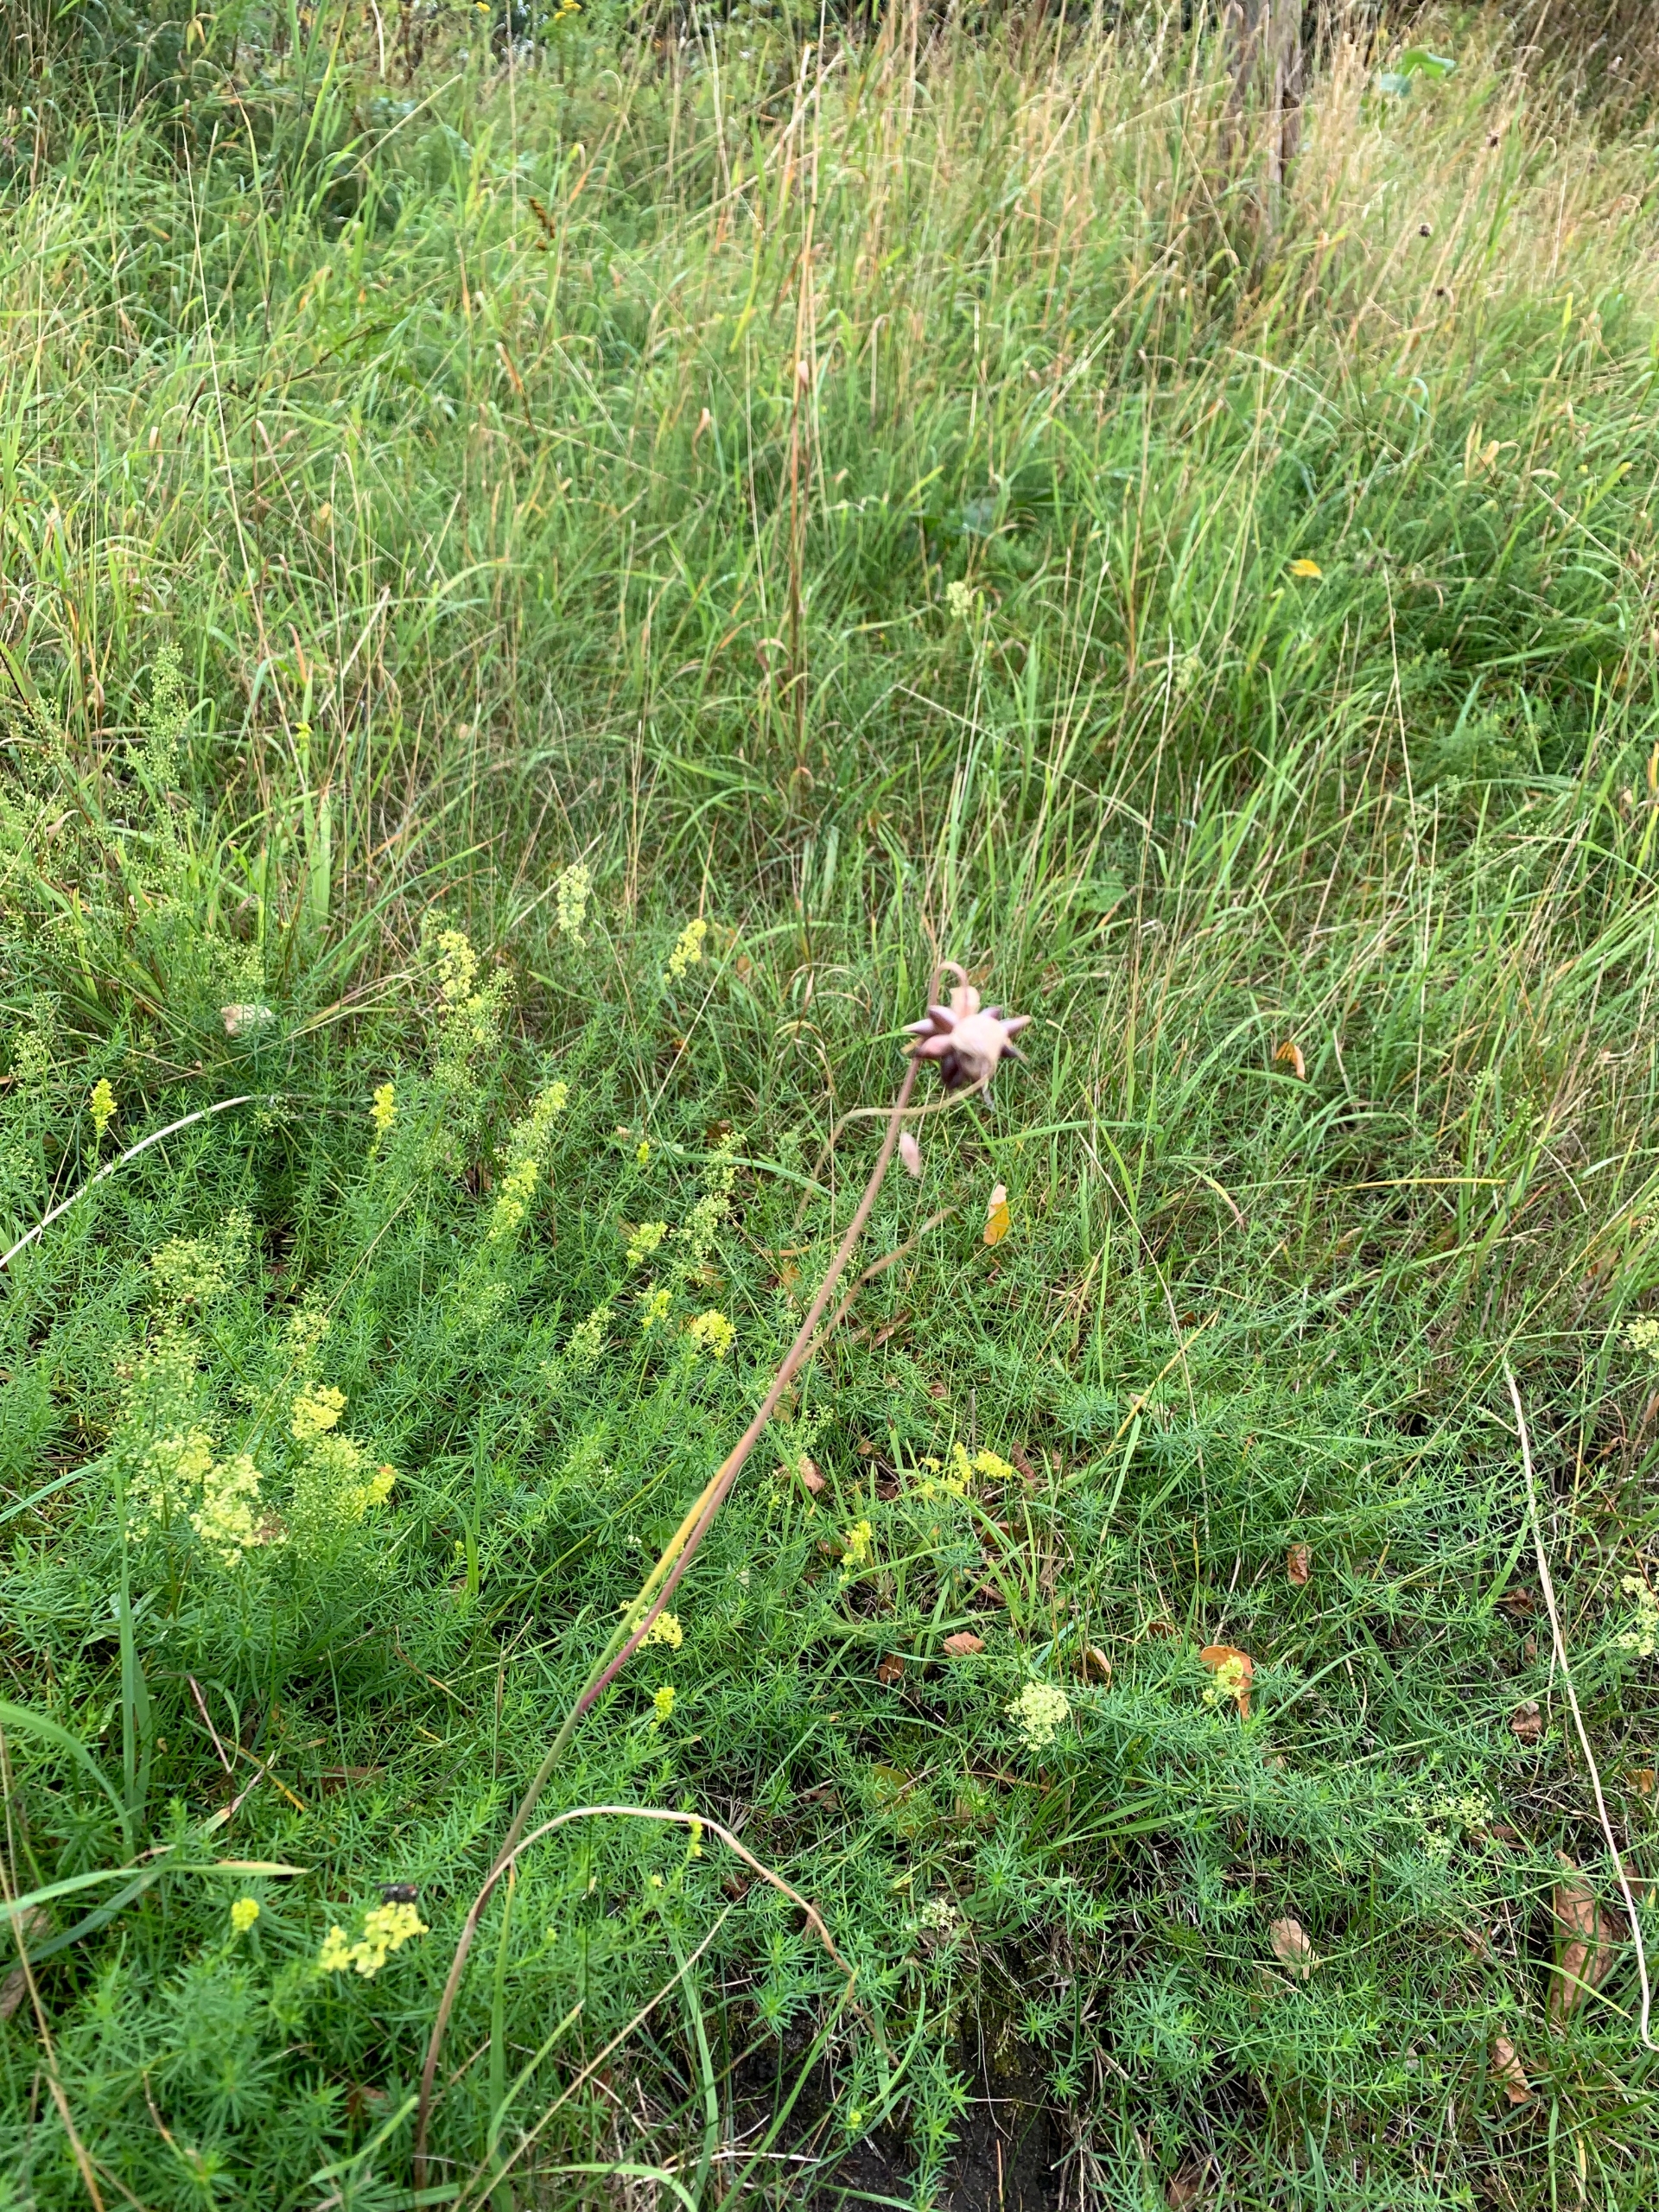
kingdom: Plantae
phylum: Tracheophyta
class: Liliopsida
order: Asparagales
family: Amaryllidaceae
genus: Allium
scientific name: Allium oleraceum
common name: Vild løg
